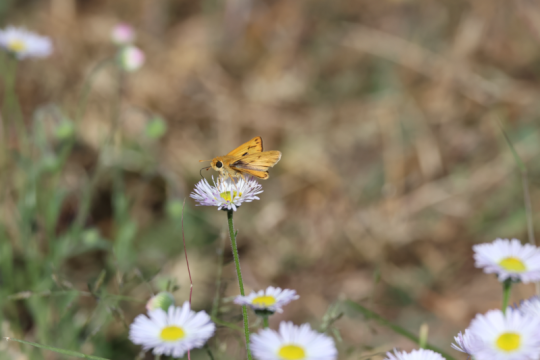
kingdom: Animalia
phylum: Arthropoda
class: Insecta
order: Lepidoptera
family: Hesperiidae
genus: Hylephila
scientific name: Hylephila phyleus
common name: Fiery Skipper
